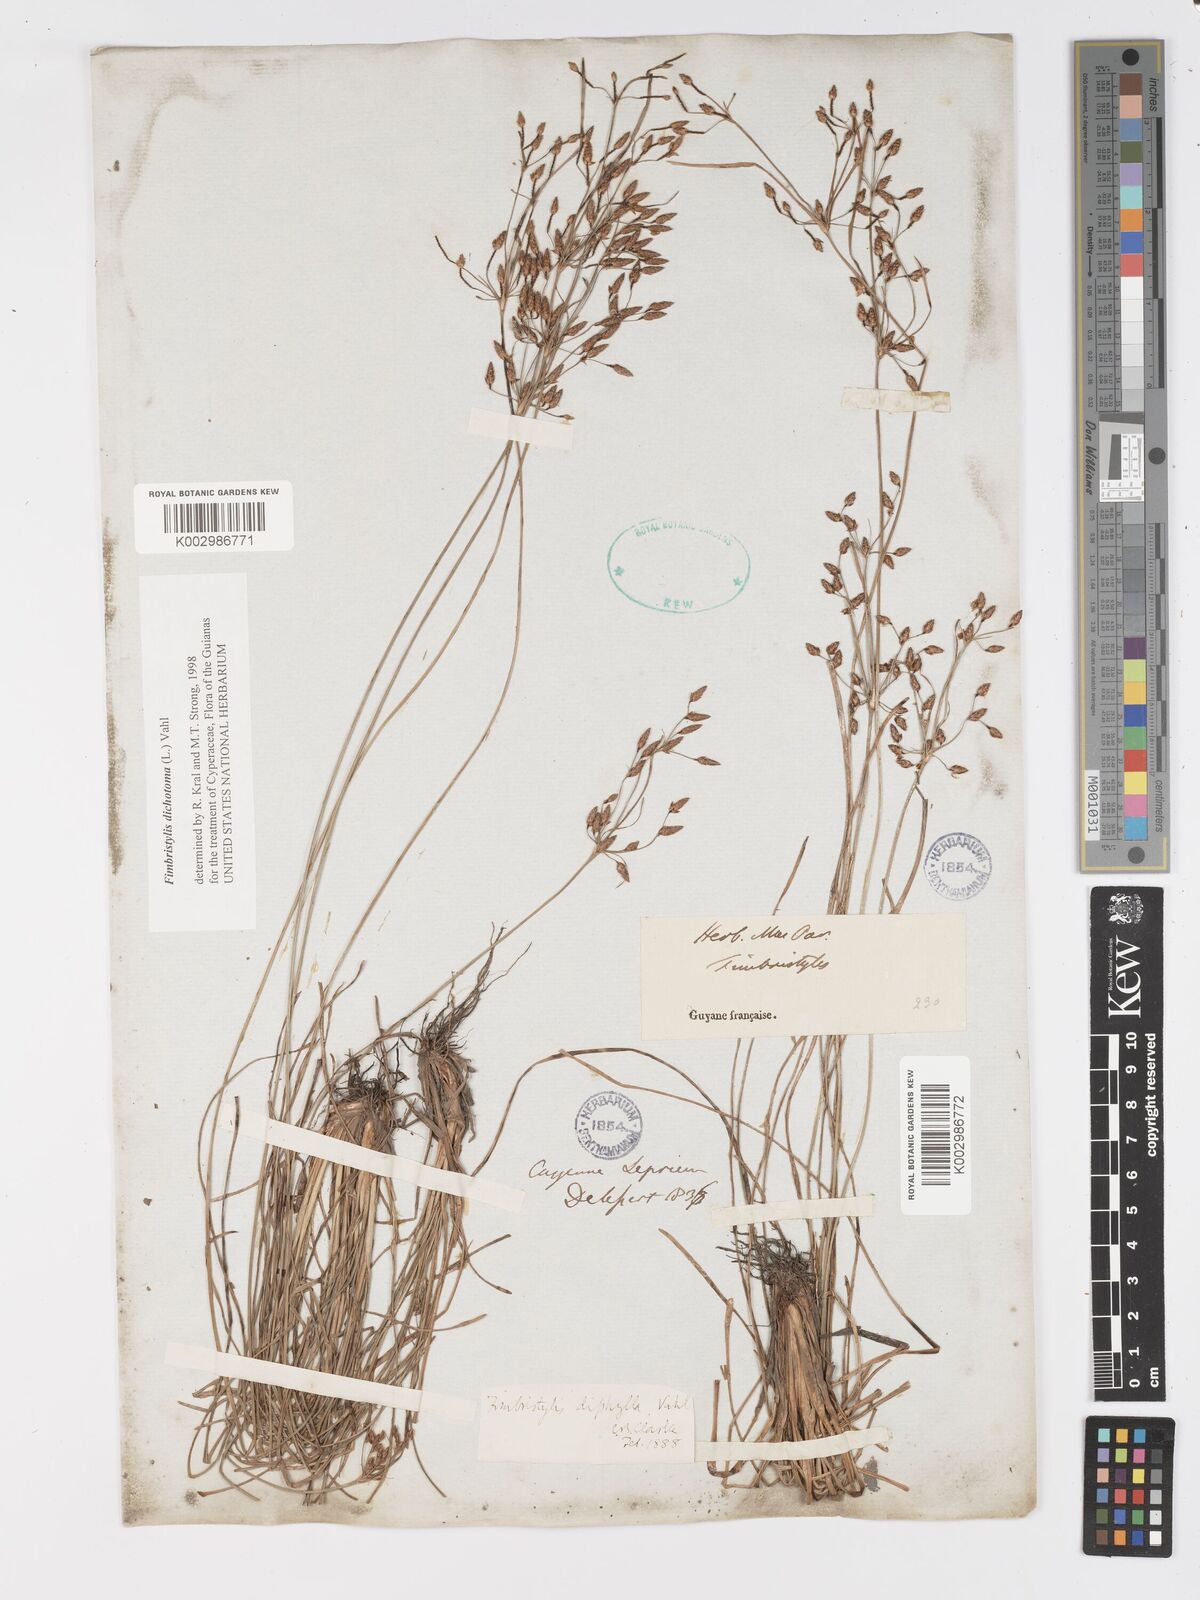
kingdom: Plantae
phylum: Tracheophyta
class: Liliopsida
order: Poales
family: Cyperaceae
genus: Fimbristylis
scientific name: Fimbristylis dichotoma
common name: Forked fimbry
